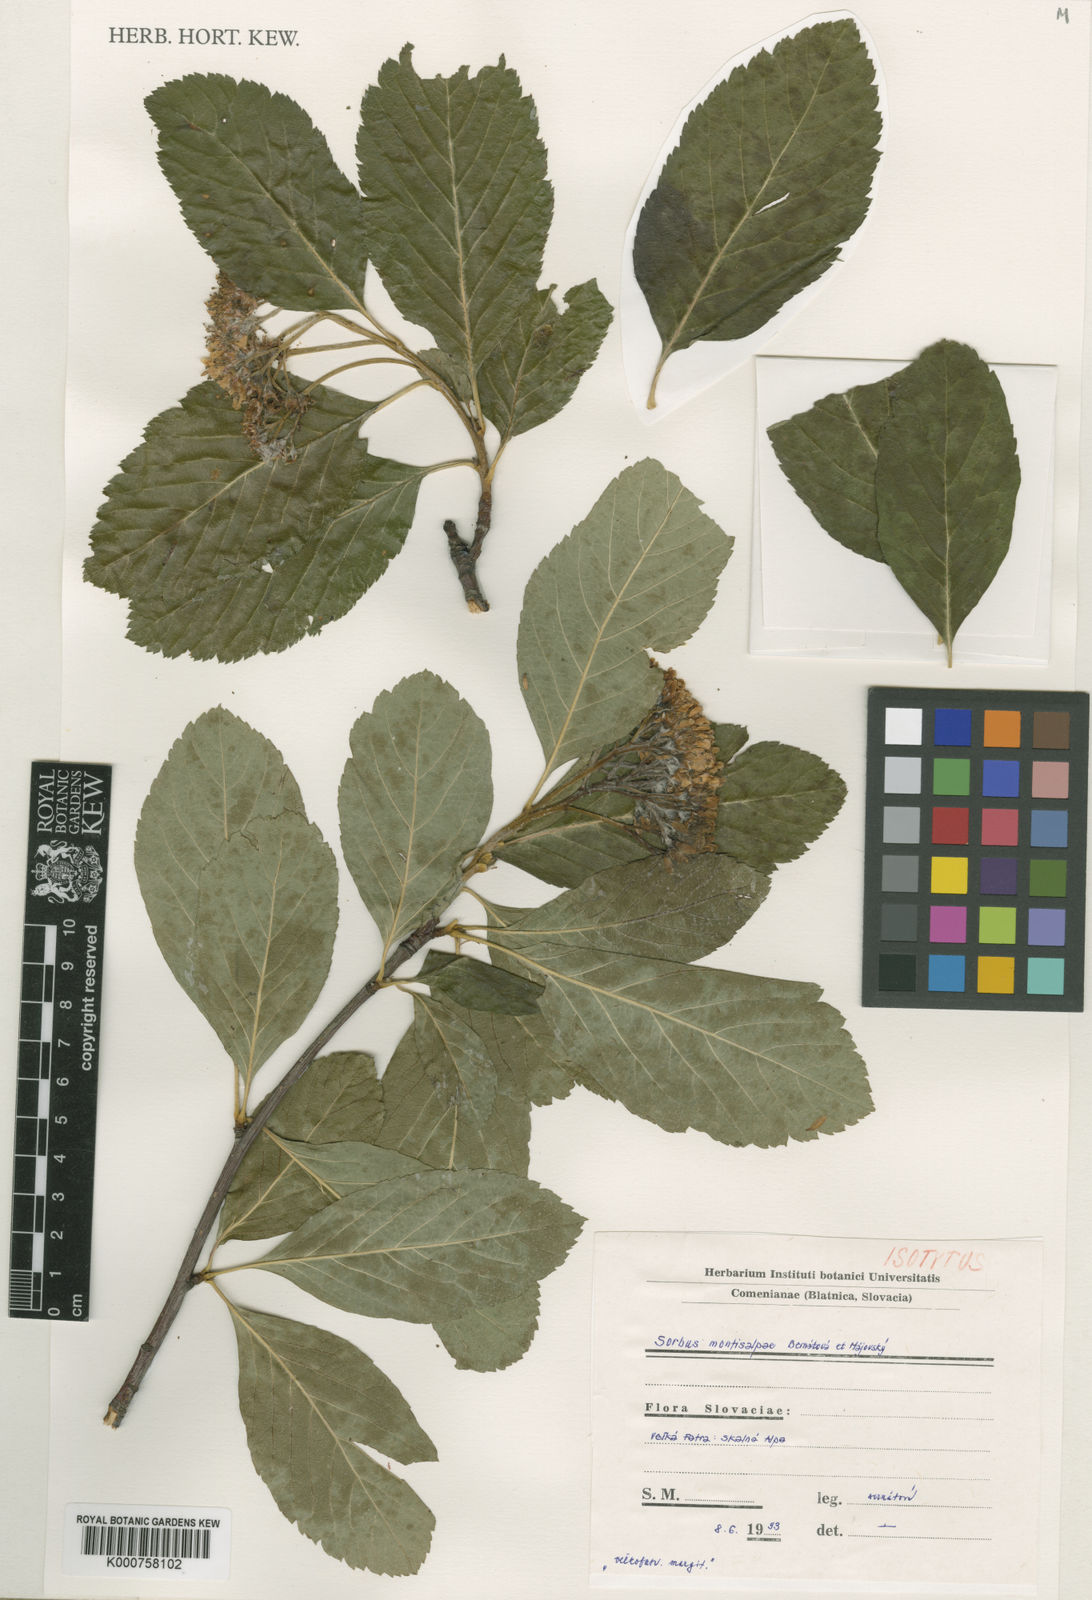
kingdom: Plantae
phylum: Tracheophyta
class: Magnoliopsida
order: Rosales
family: Rosaceae
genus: Sorbus
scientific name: Sorbus
